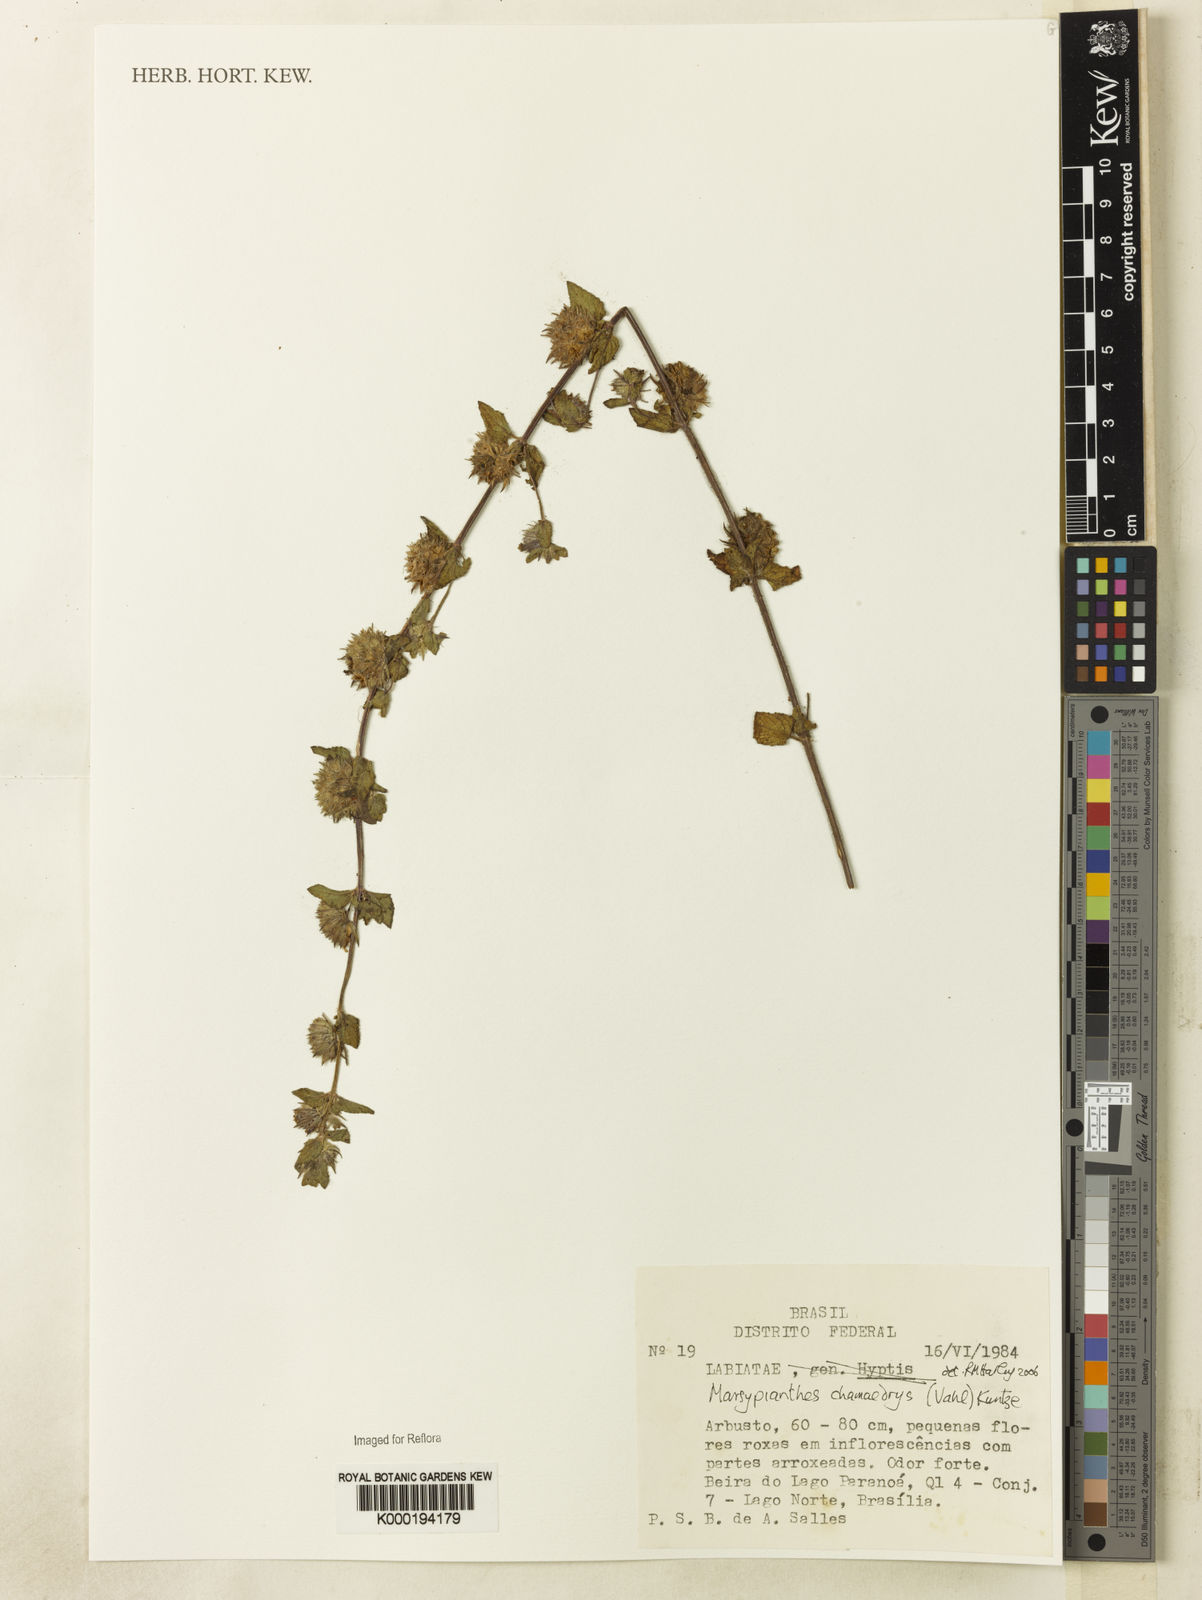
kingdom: Plantae
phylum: Tracheophyta
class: Magnoliopsida
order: Lamiales
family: Lamiaceae
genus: Marsypianthes
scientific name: Marsypianthes chamaedrys
